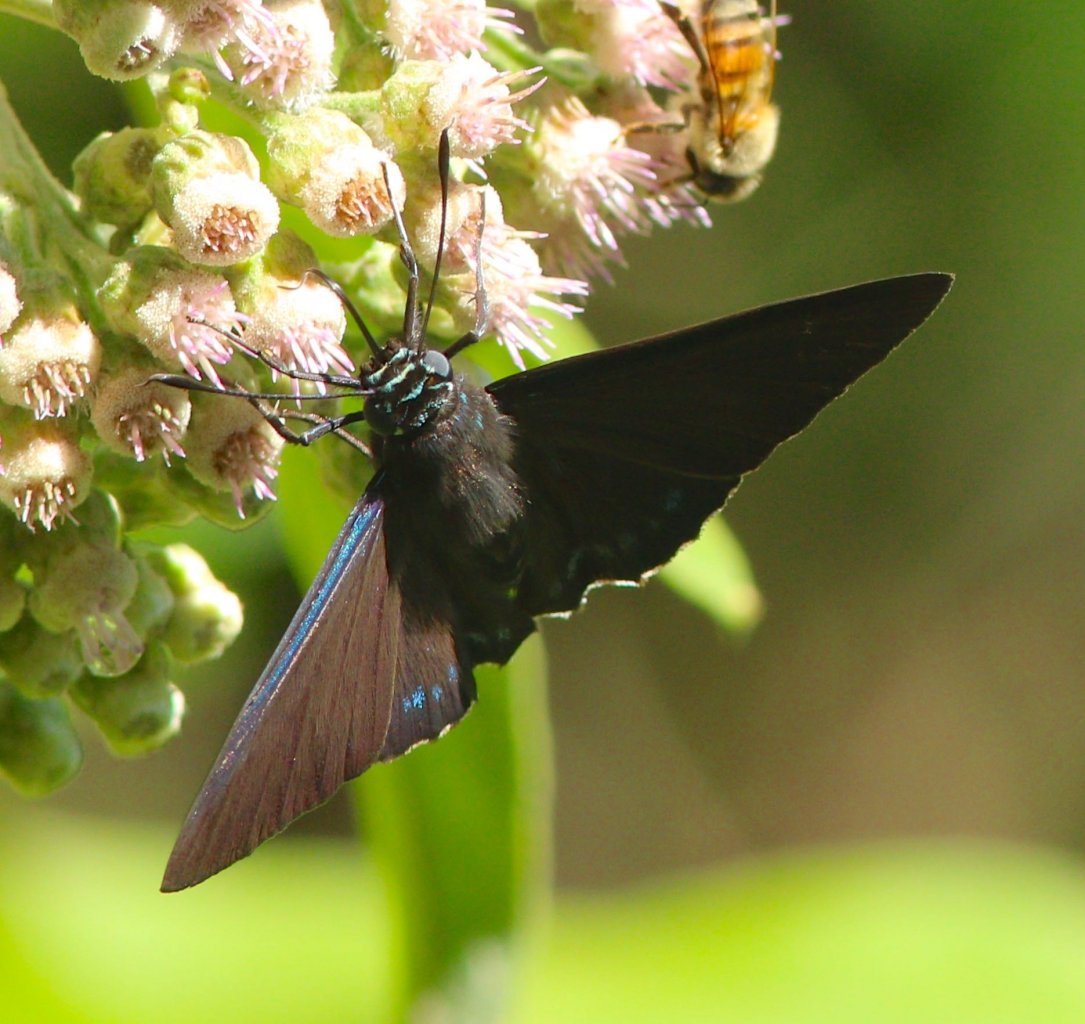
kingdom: Animalia
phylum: Arthropoda
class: Insecta
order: Lepidoptera
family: Hesperiidae
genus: Phocides
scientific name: Phocides pigmalion
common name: Mangrove Skipper
